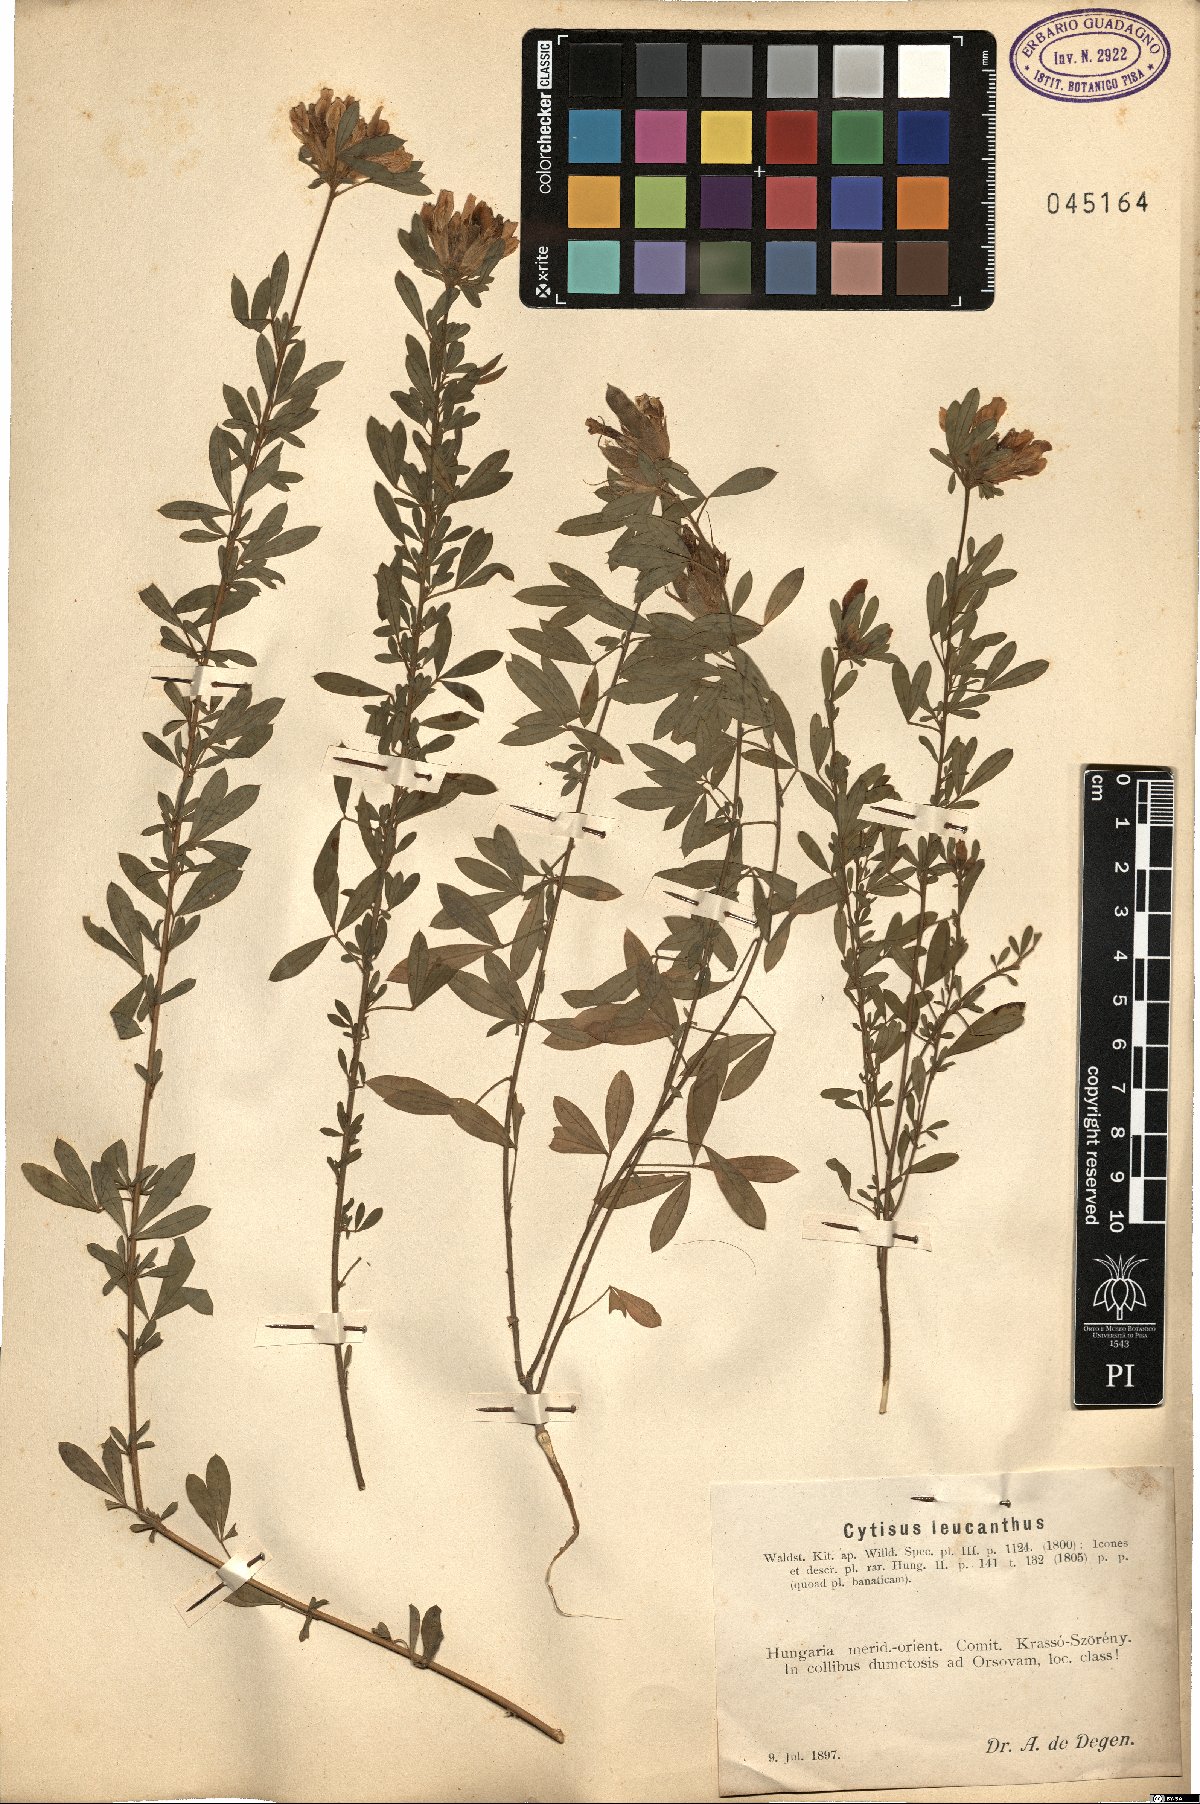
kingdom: Plantae
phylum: Tracheophyta
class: Magnoliopsida
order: Fabales
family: Fabaceae
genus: Chamaecytisus
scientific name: Chamaecytisus albus
